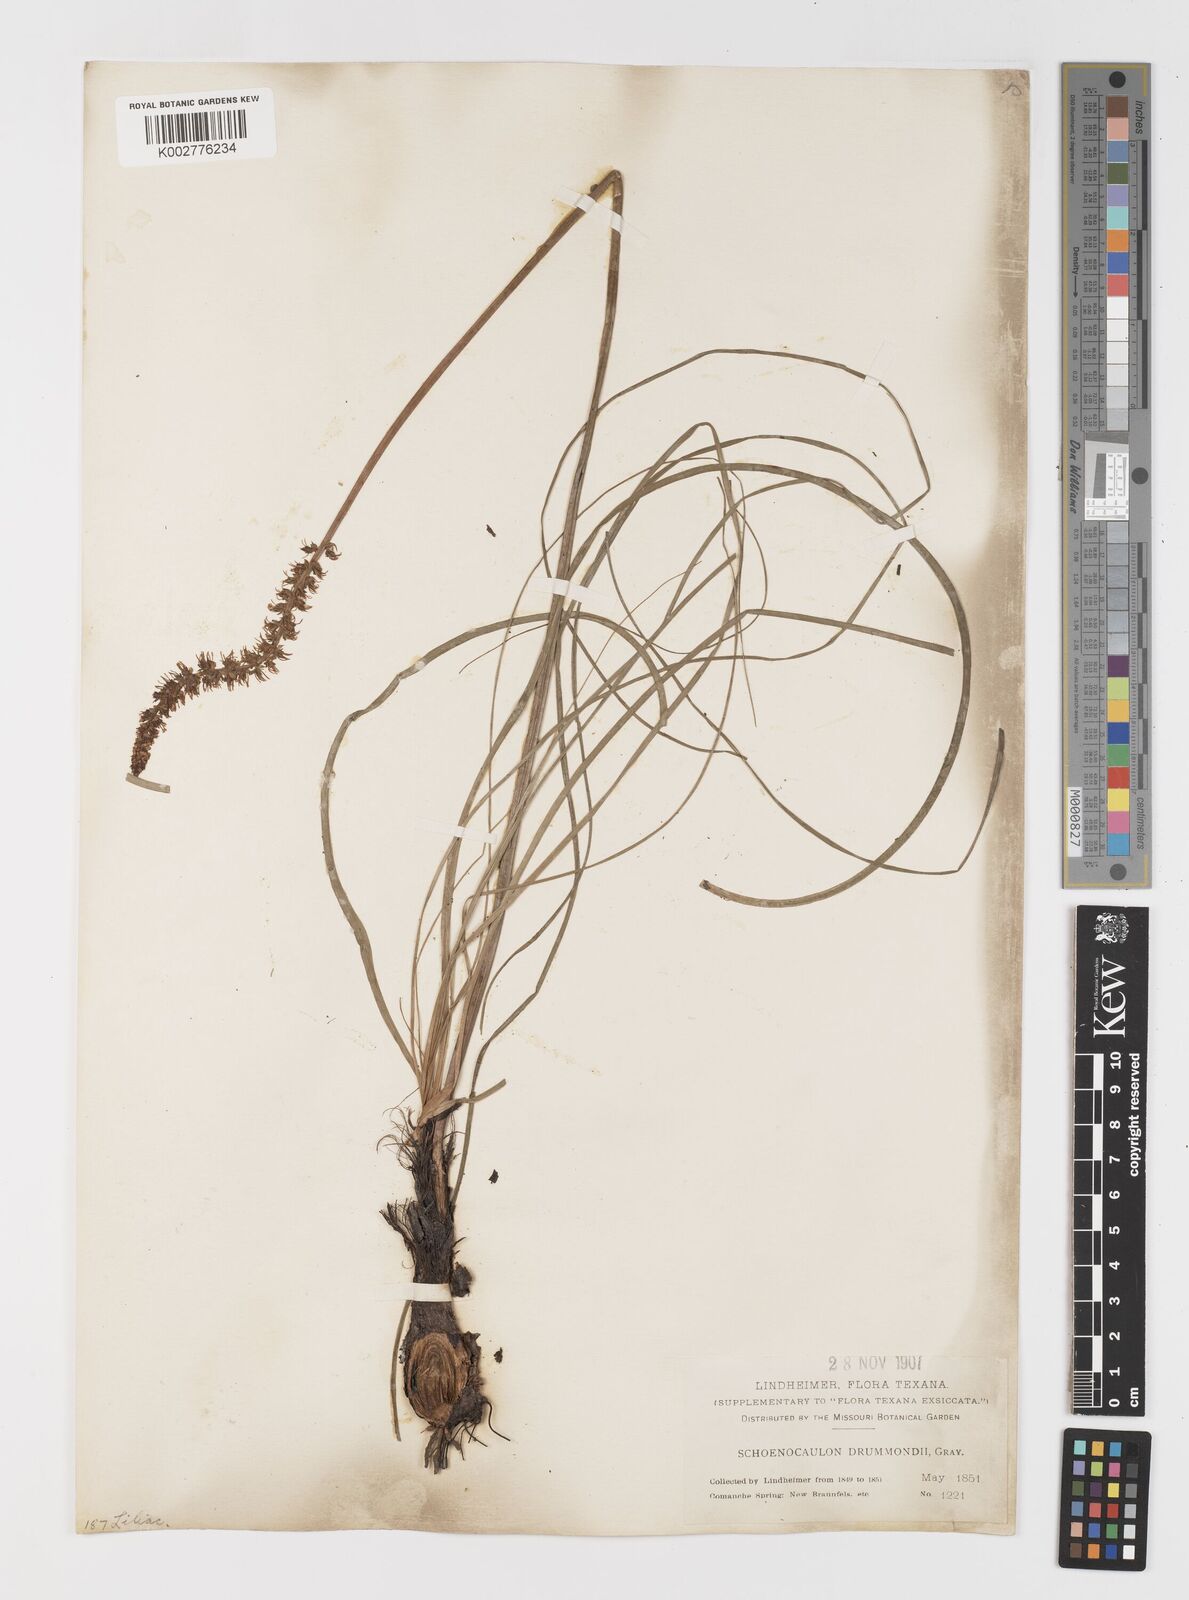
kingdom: Plantae
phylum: Tracheophyta
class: Liliopsida
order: Liliales
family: Melanthiaceae
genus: Schoenocaulon
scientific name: Schoenocaulon texanum
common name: Texas feather-shank
